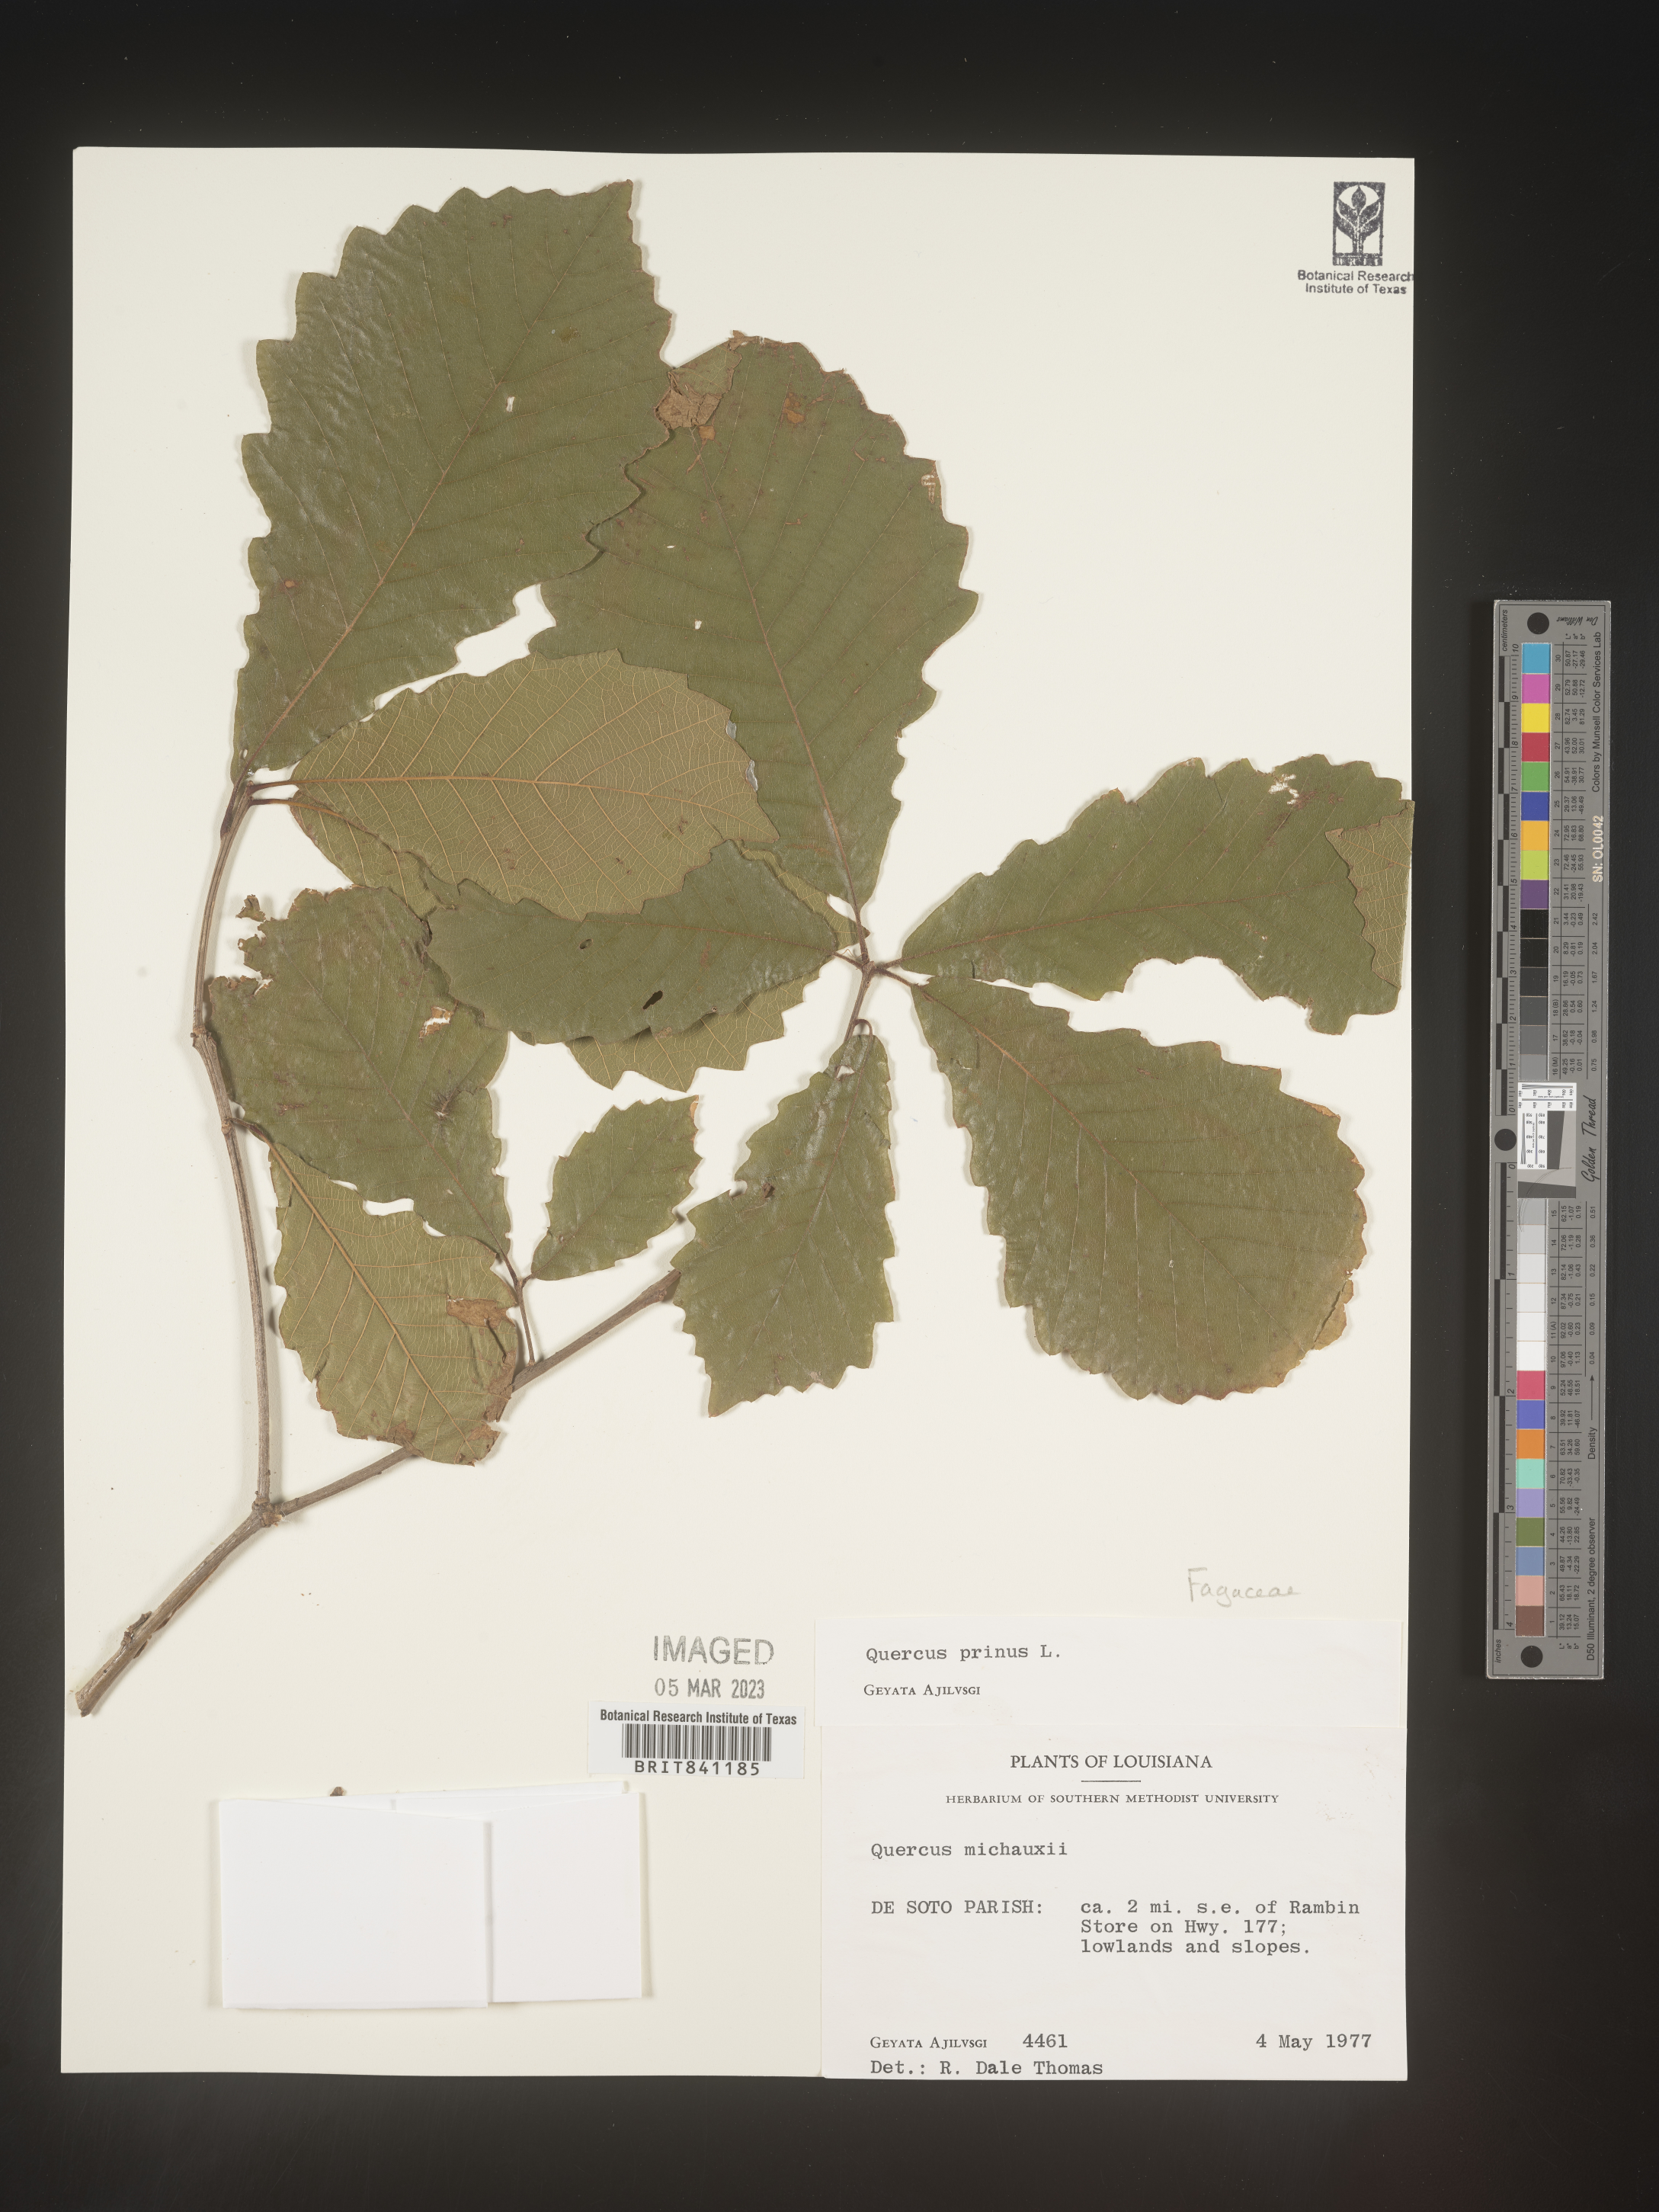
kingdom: Plantae
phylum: Tracheophyta
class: Magnoliopsida
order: Fagales
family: Fagaceae
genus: Quercus
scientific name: Quercus michauxii
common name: Swamp chestnut oak
